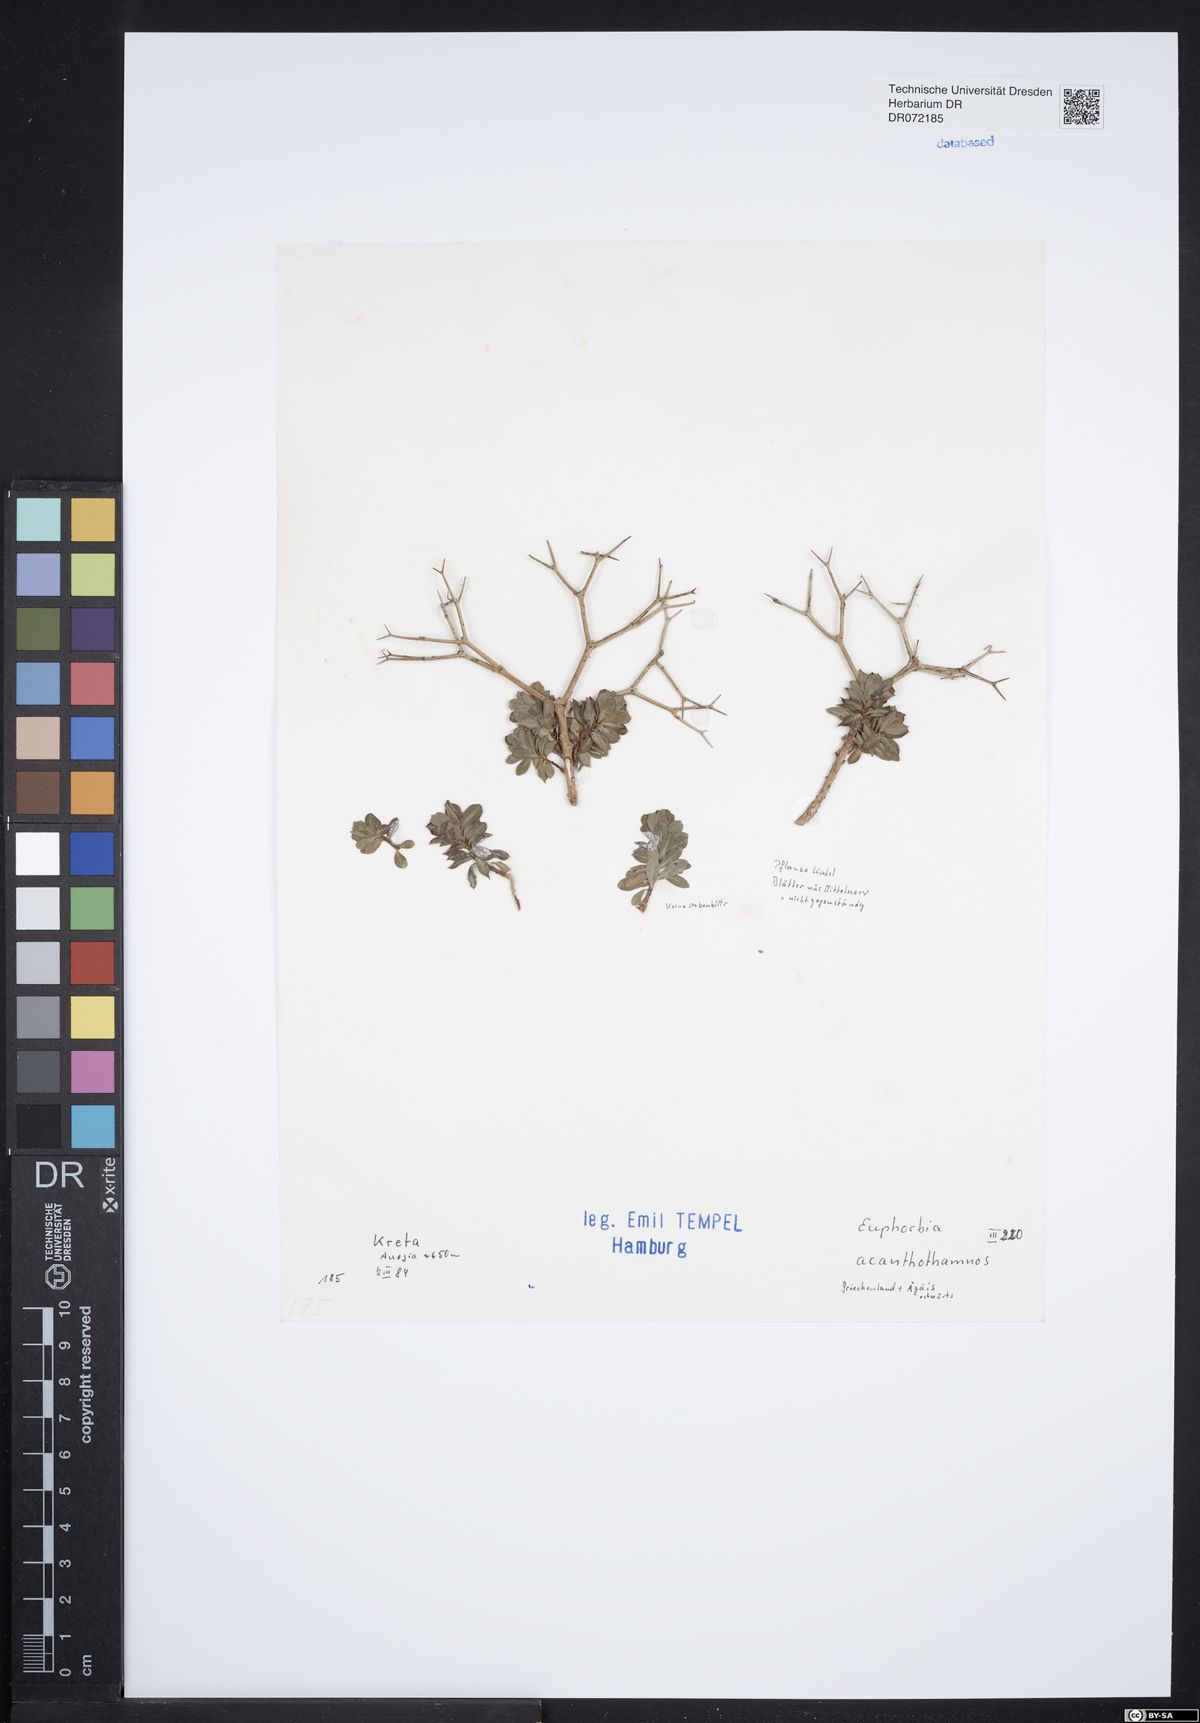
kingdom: Plantae
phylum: Tracheophyta
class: Magnoliopsida
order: Malpighiales
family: Euphorbiaceae
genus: Euphorbia
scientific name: Euphorbia acanthothamnos
